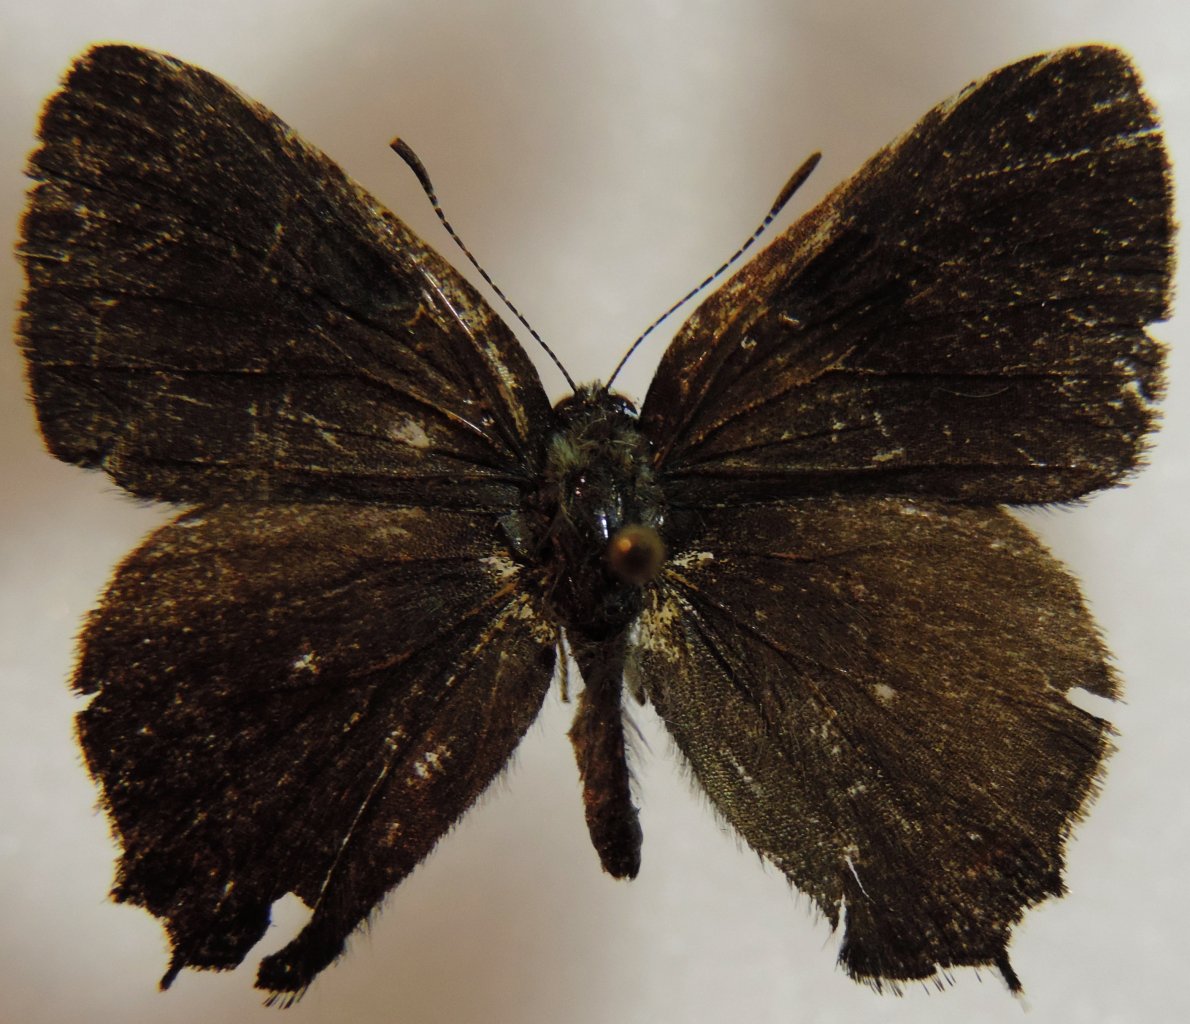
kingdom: Animalia
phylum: Arthropoda
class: Insecta
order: Lepidoptera
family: Lycaenidae
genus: Satyrium
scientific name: Satyrium calanus
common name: Banded Hairstreak
